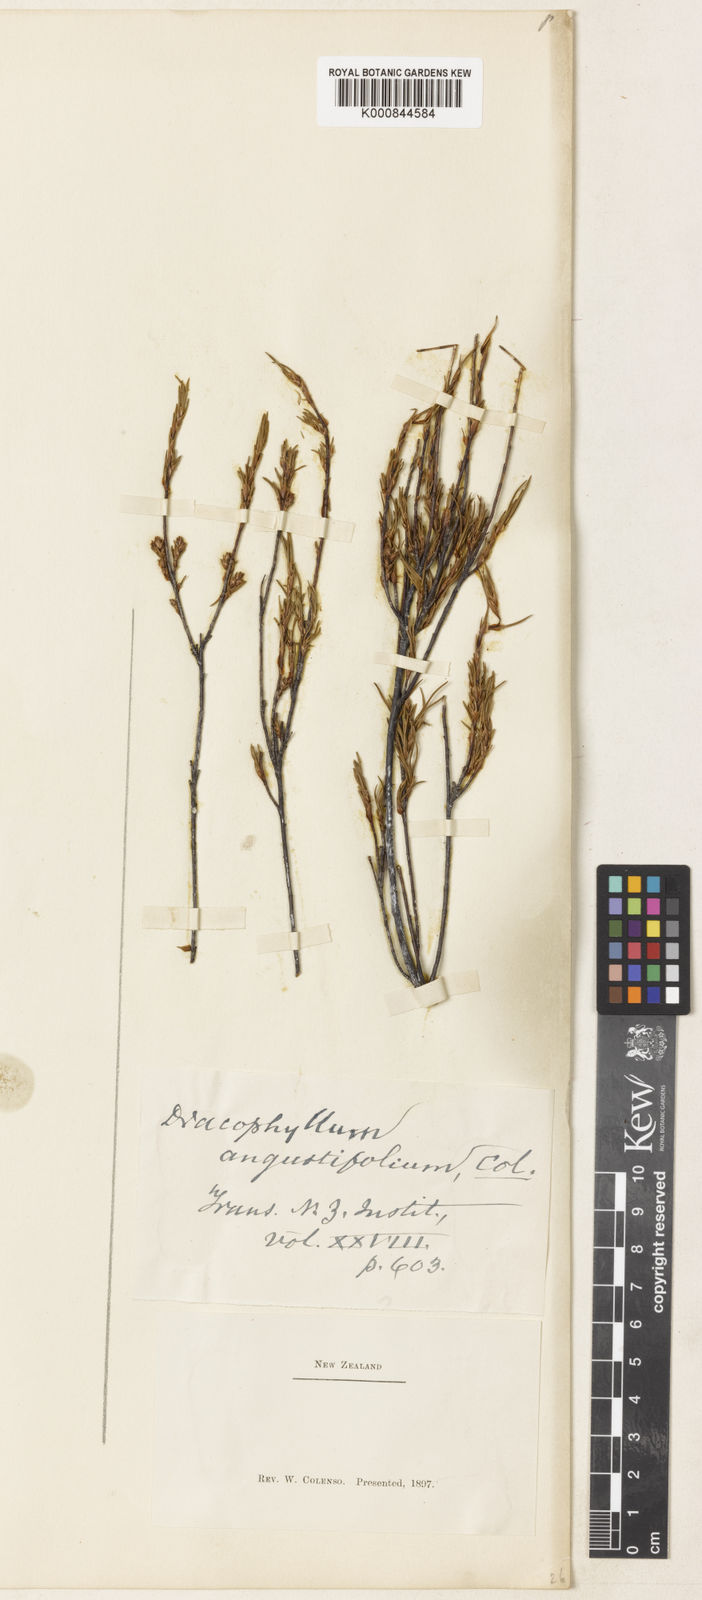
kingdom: Plantae
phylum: Tracheophyta
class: Magnoliopsida
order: Ericales
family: Ericaceae
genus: Dracophyllum
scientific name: Dracophyllum subulatum
